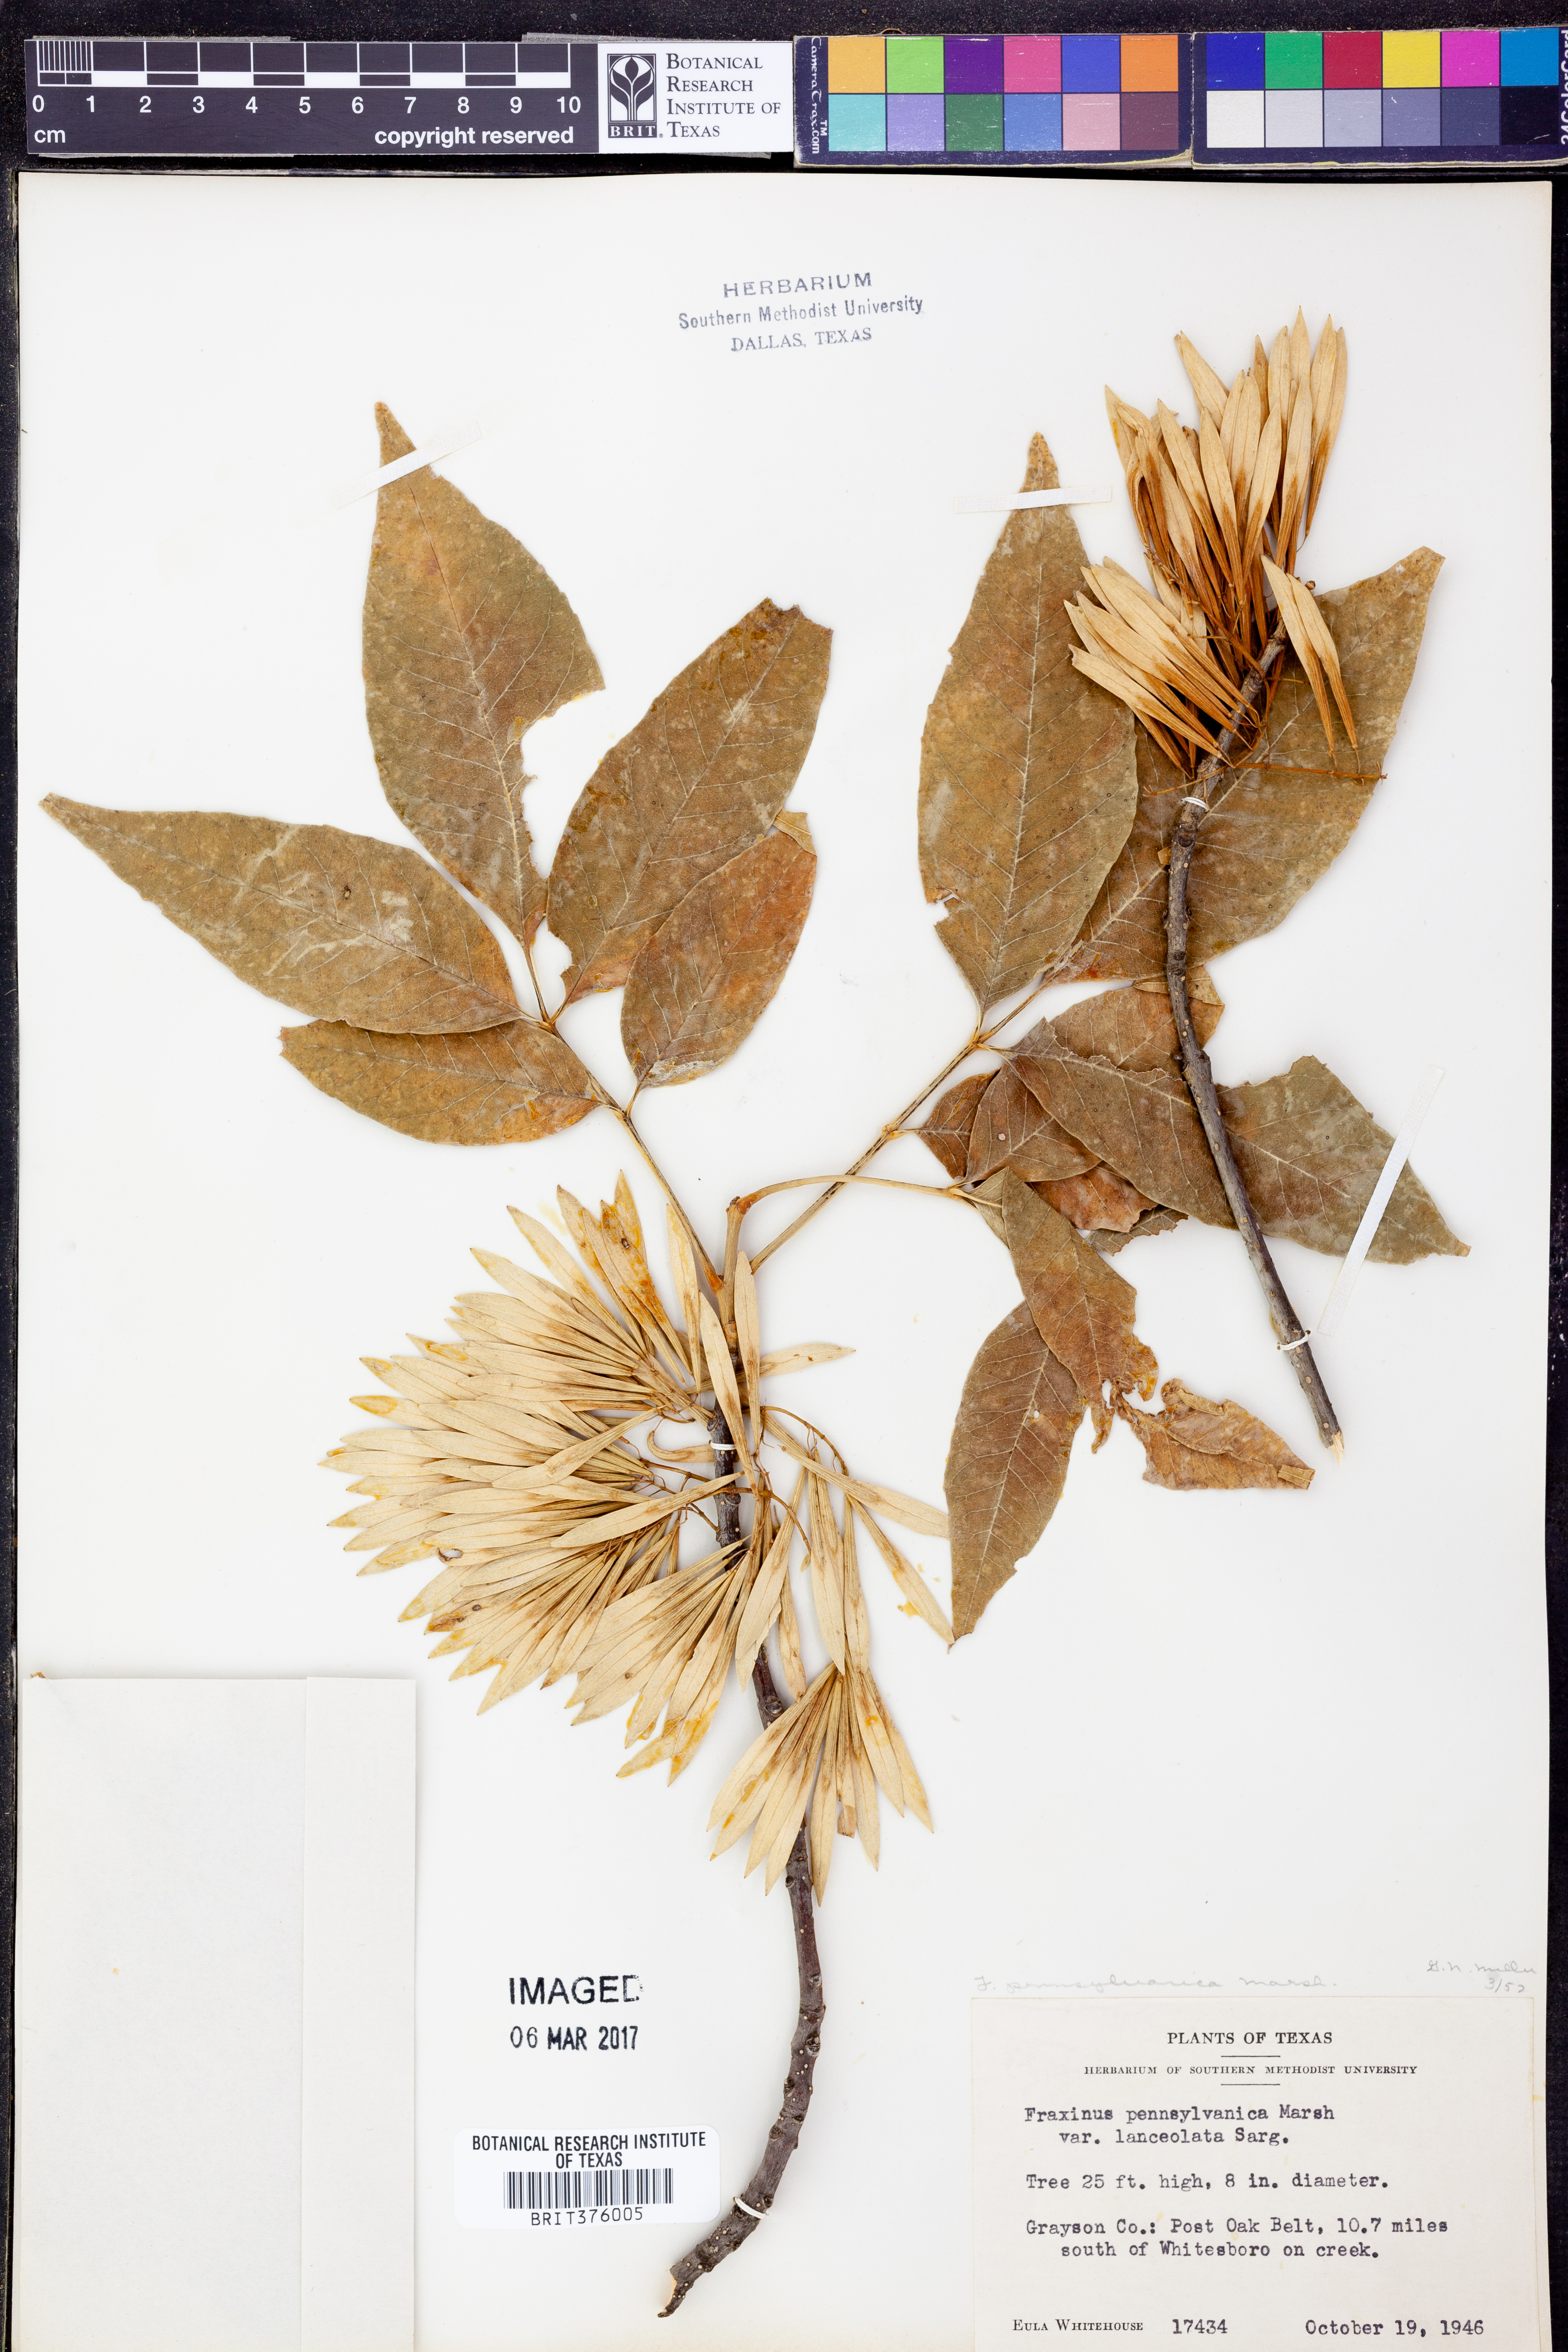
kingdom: Plantae
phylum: Tracheophyta
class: Magnoliopsida
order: Lamiales
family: Oleaceae
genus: Fraxinus
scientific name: Fraxinus pennsylvanica
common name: Green ash
